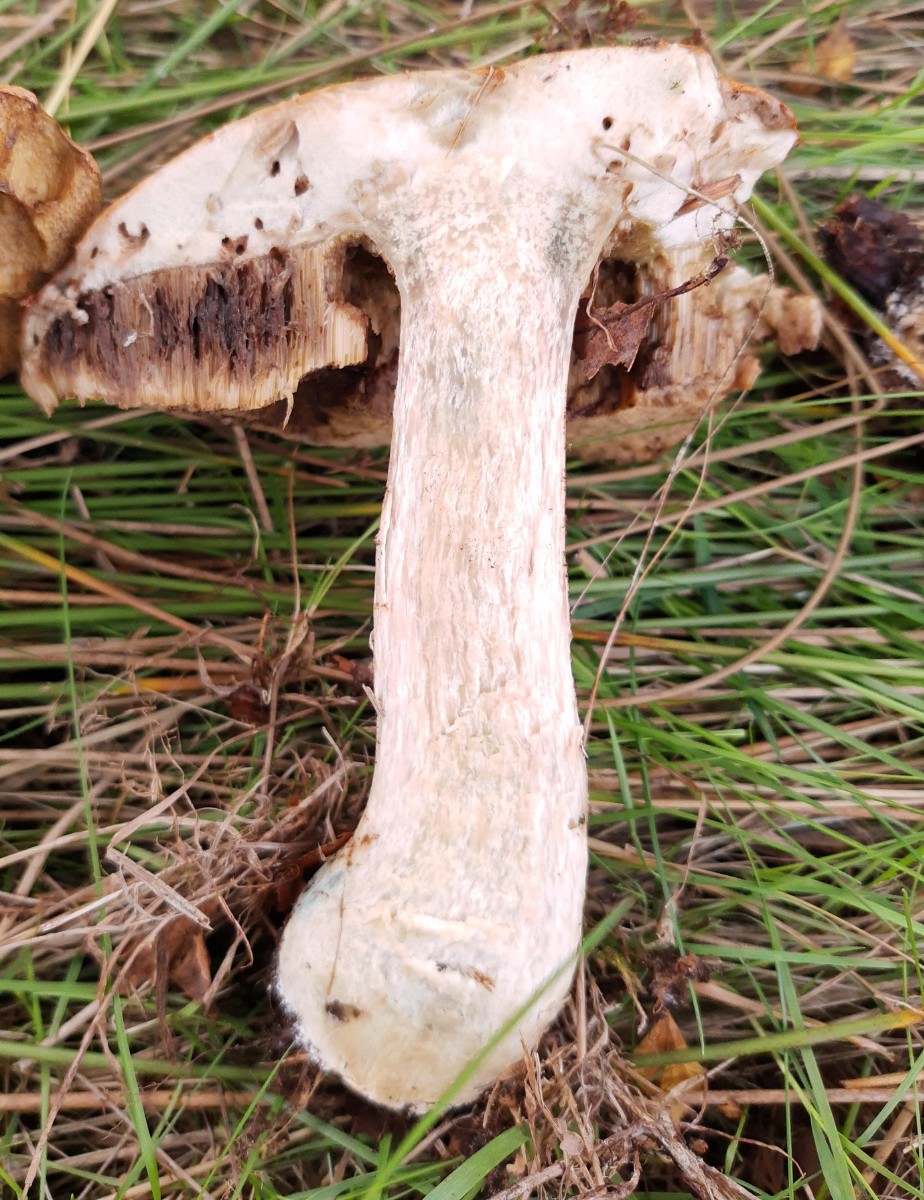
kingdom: Fungi
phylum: Basidiomycota
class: Agaricomycetes
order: Boletales
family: Boletaceae
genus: Leccinum
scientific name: Leccinum schistophilum
